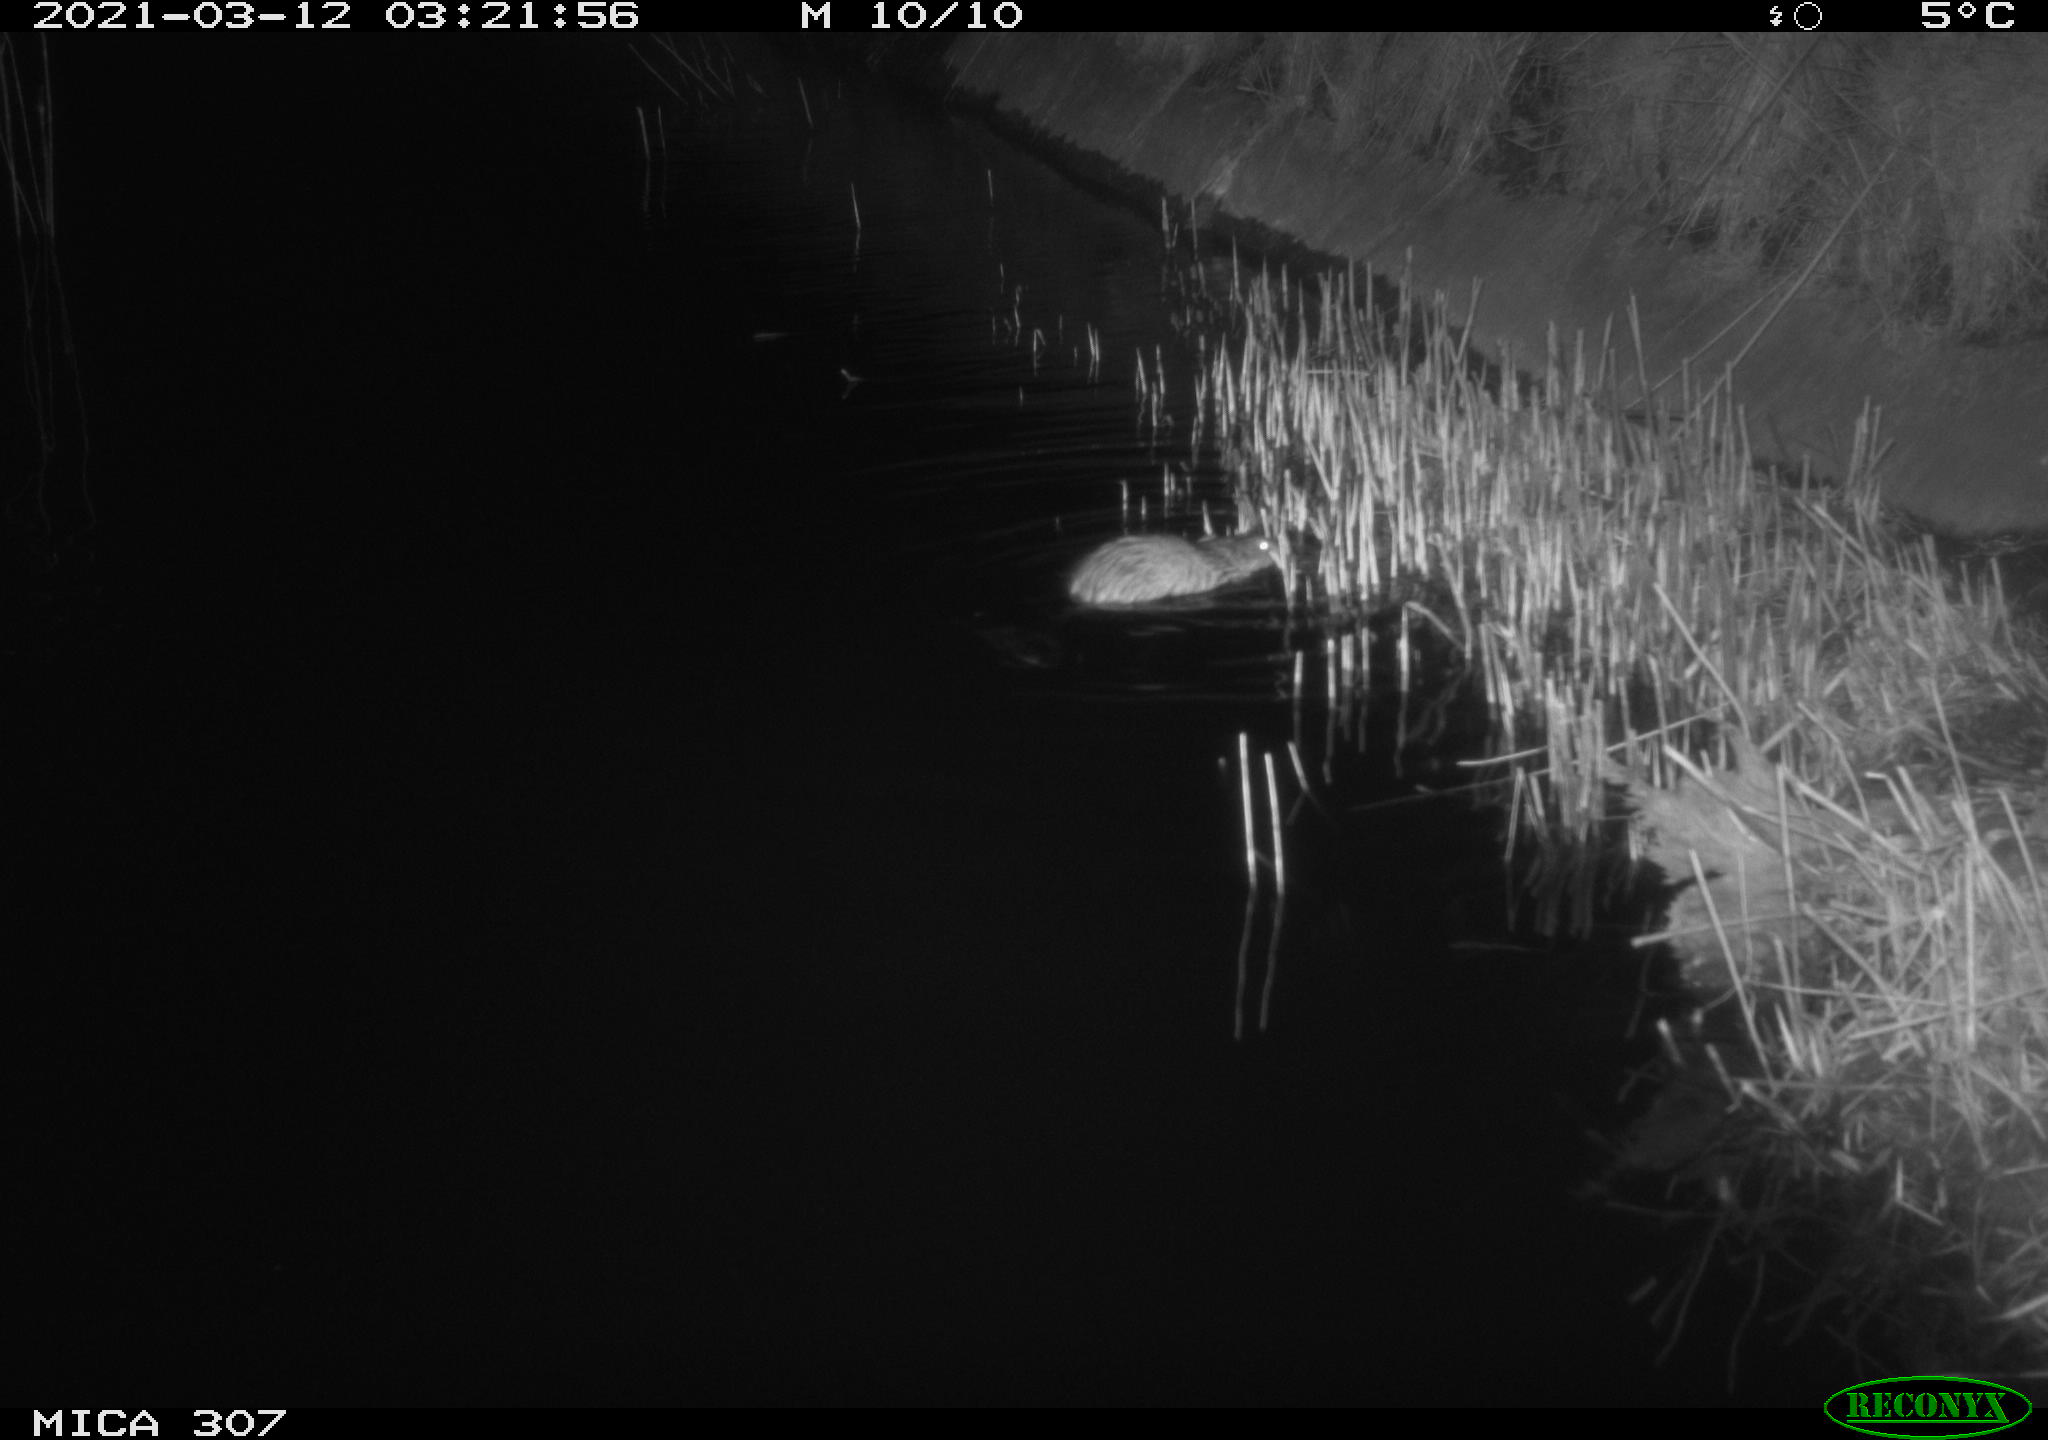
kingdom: Animalia
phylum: Chordata
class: Mammalia
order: Rodentia
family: Cricetidae
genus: Ondatra
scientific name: Ondatra zibethicus
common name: Muskrat
